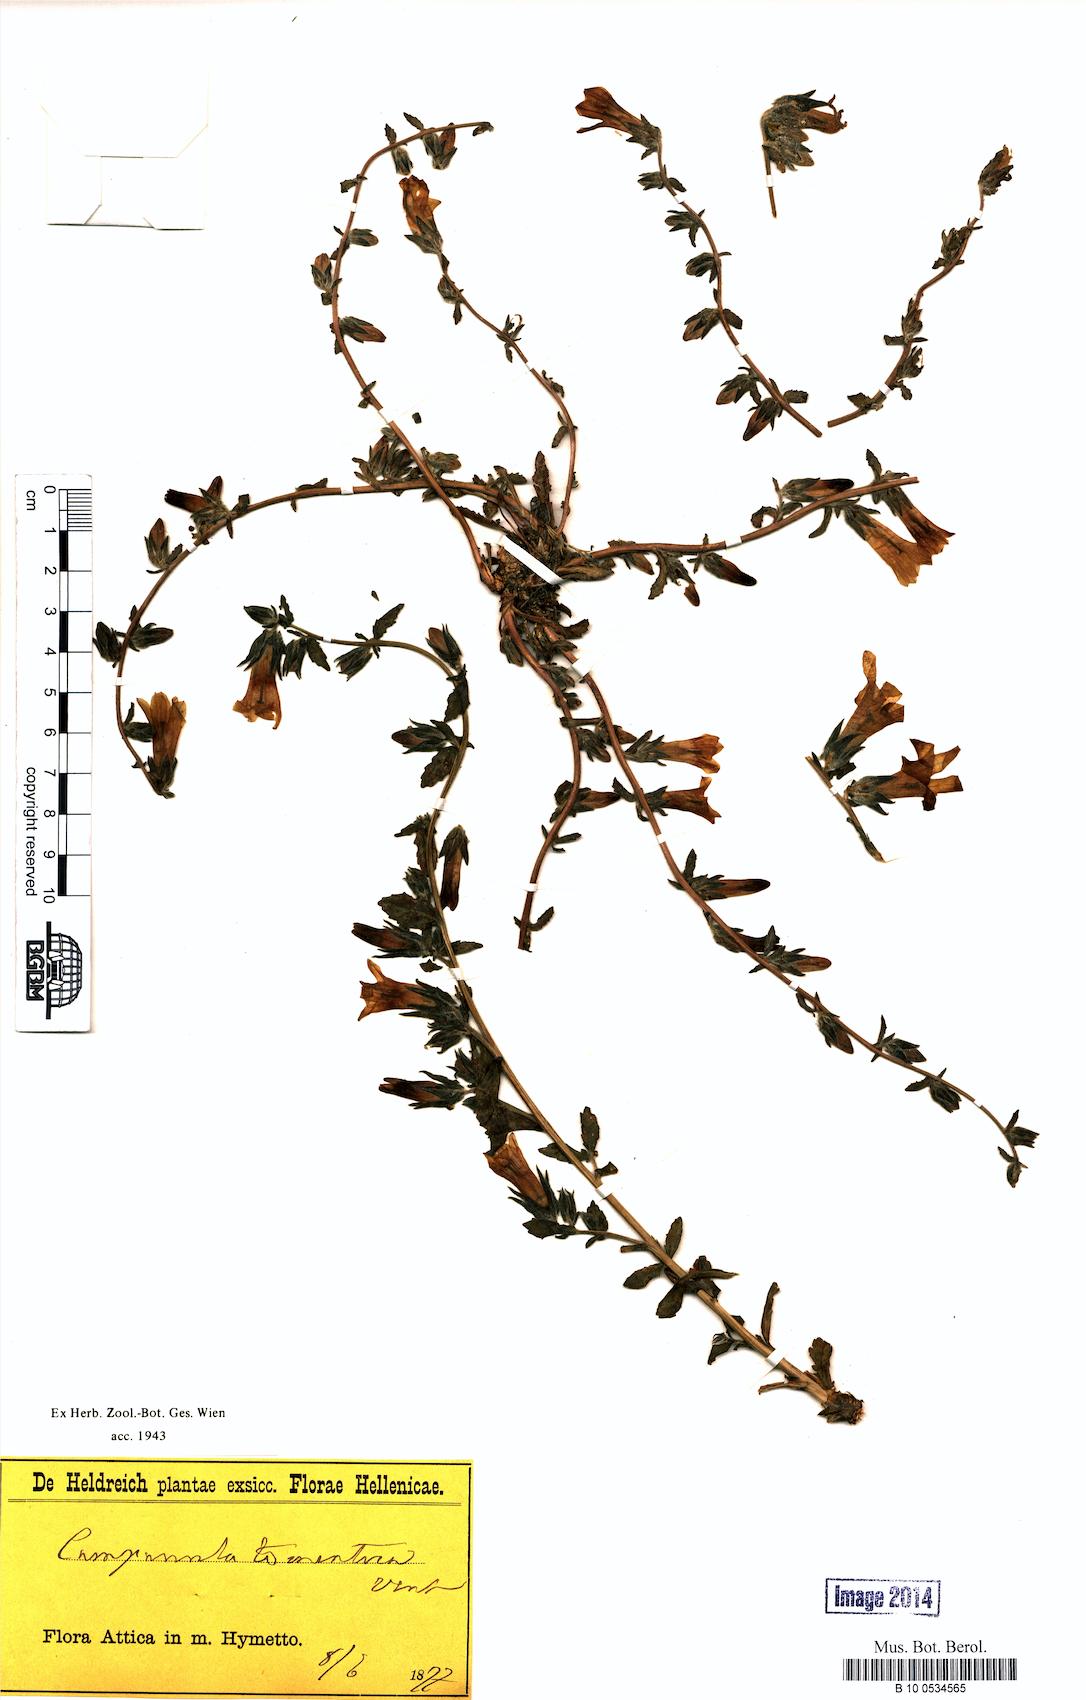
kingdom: Plantae
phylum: Tracheophyta
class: Magnoliopsida
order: Asterales
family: Campanulaceae
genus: Campanula
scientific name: Campanula celsii
